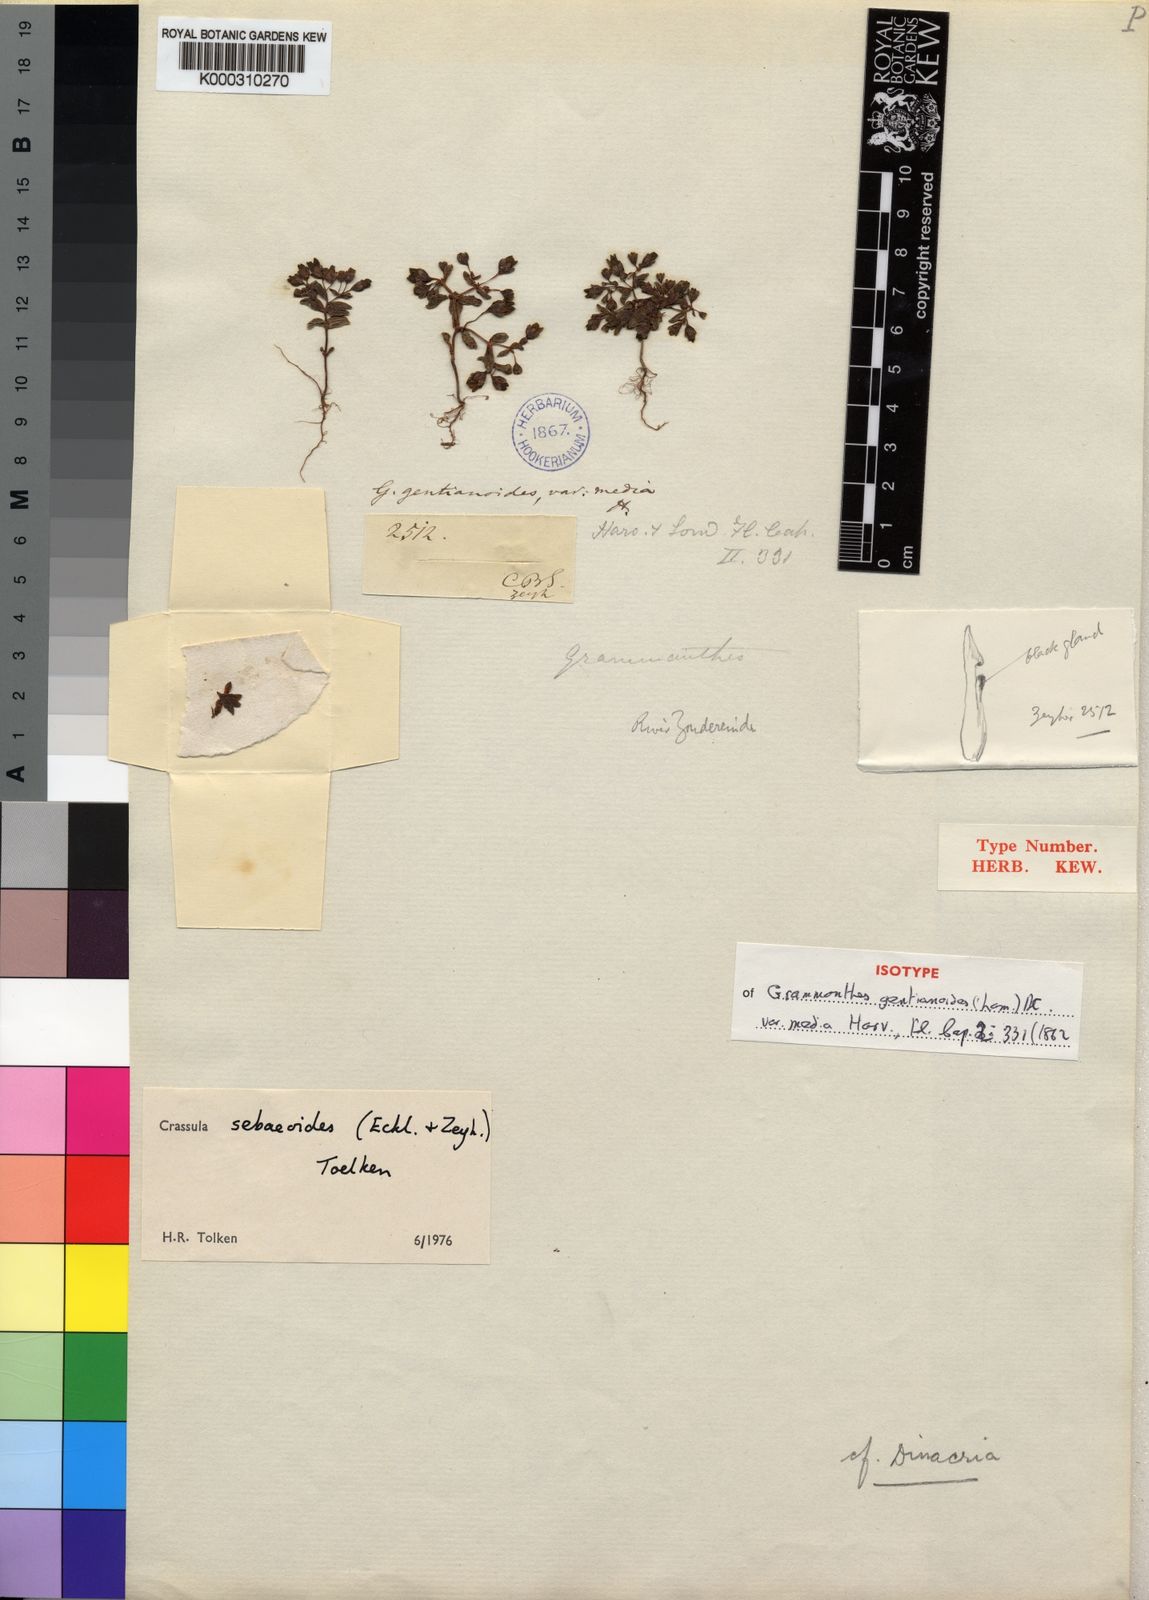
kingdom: Plantae
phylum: Tracheophyta
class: Magnoliopsida
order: Saxifragales
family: Crassulaceae
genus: Crassula
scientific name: Crassula sebaeoides
